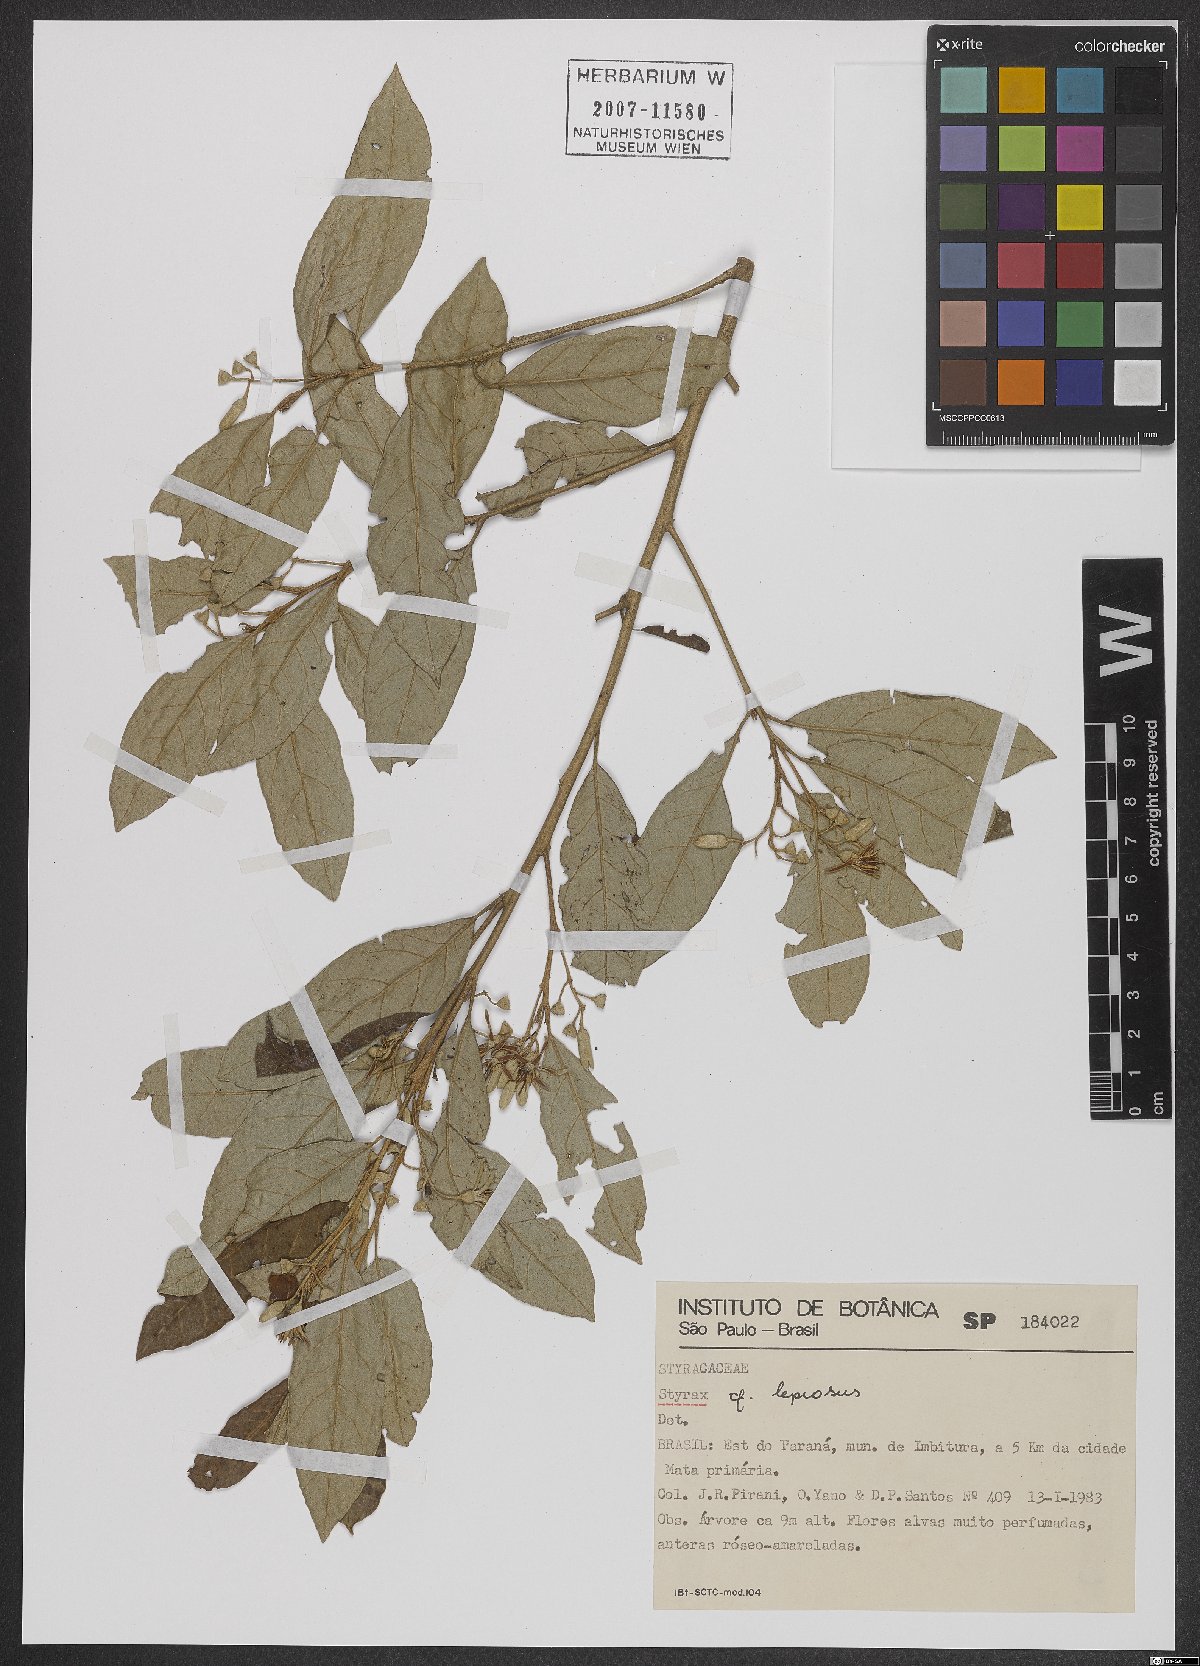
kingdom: Plantae
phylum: Tracheophyta
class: Magnoliopsida
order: Ericales
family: Styracaceae
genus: Styrax
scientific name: Styrax leprosus
